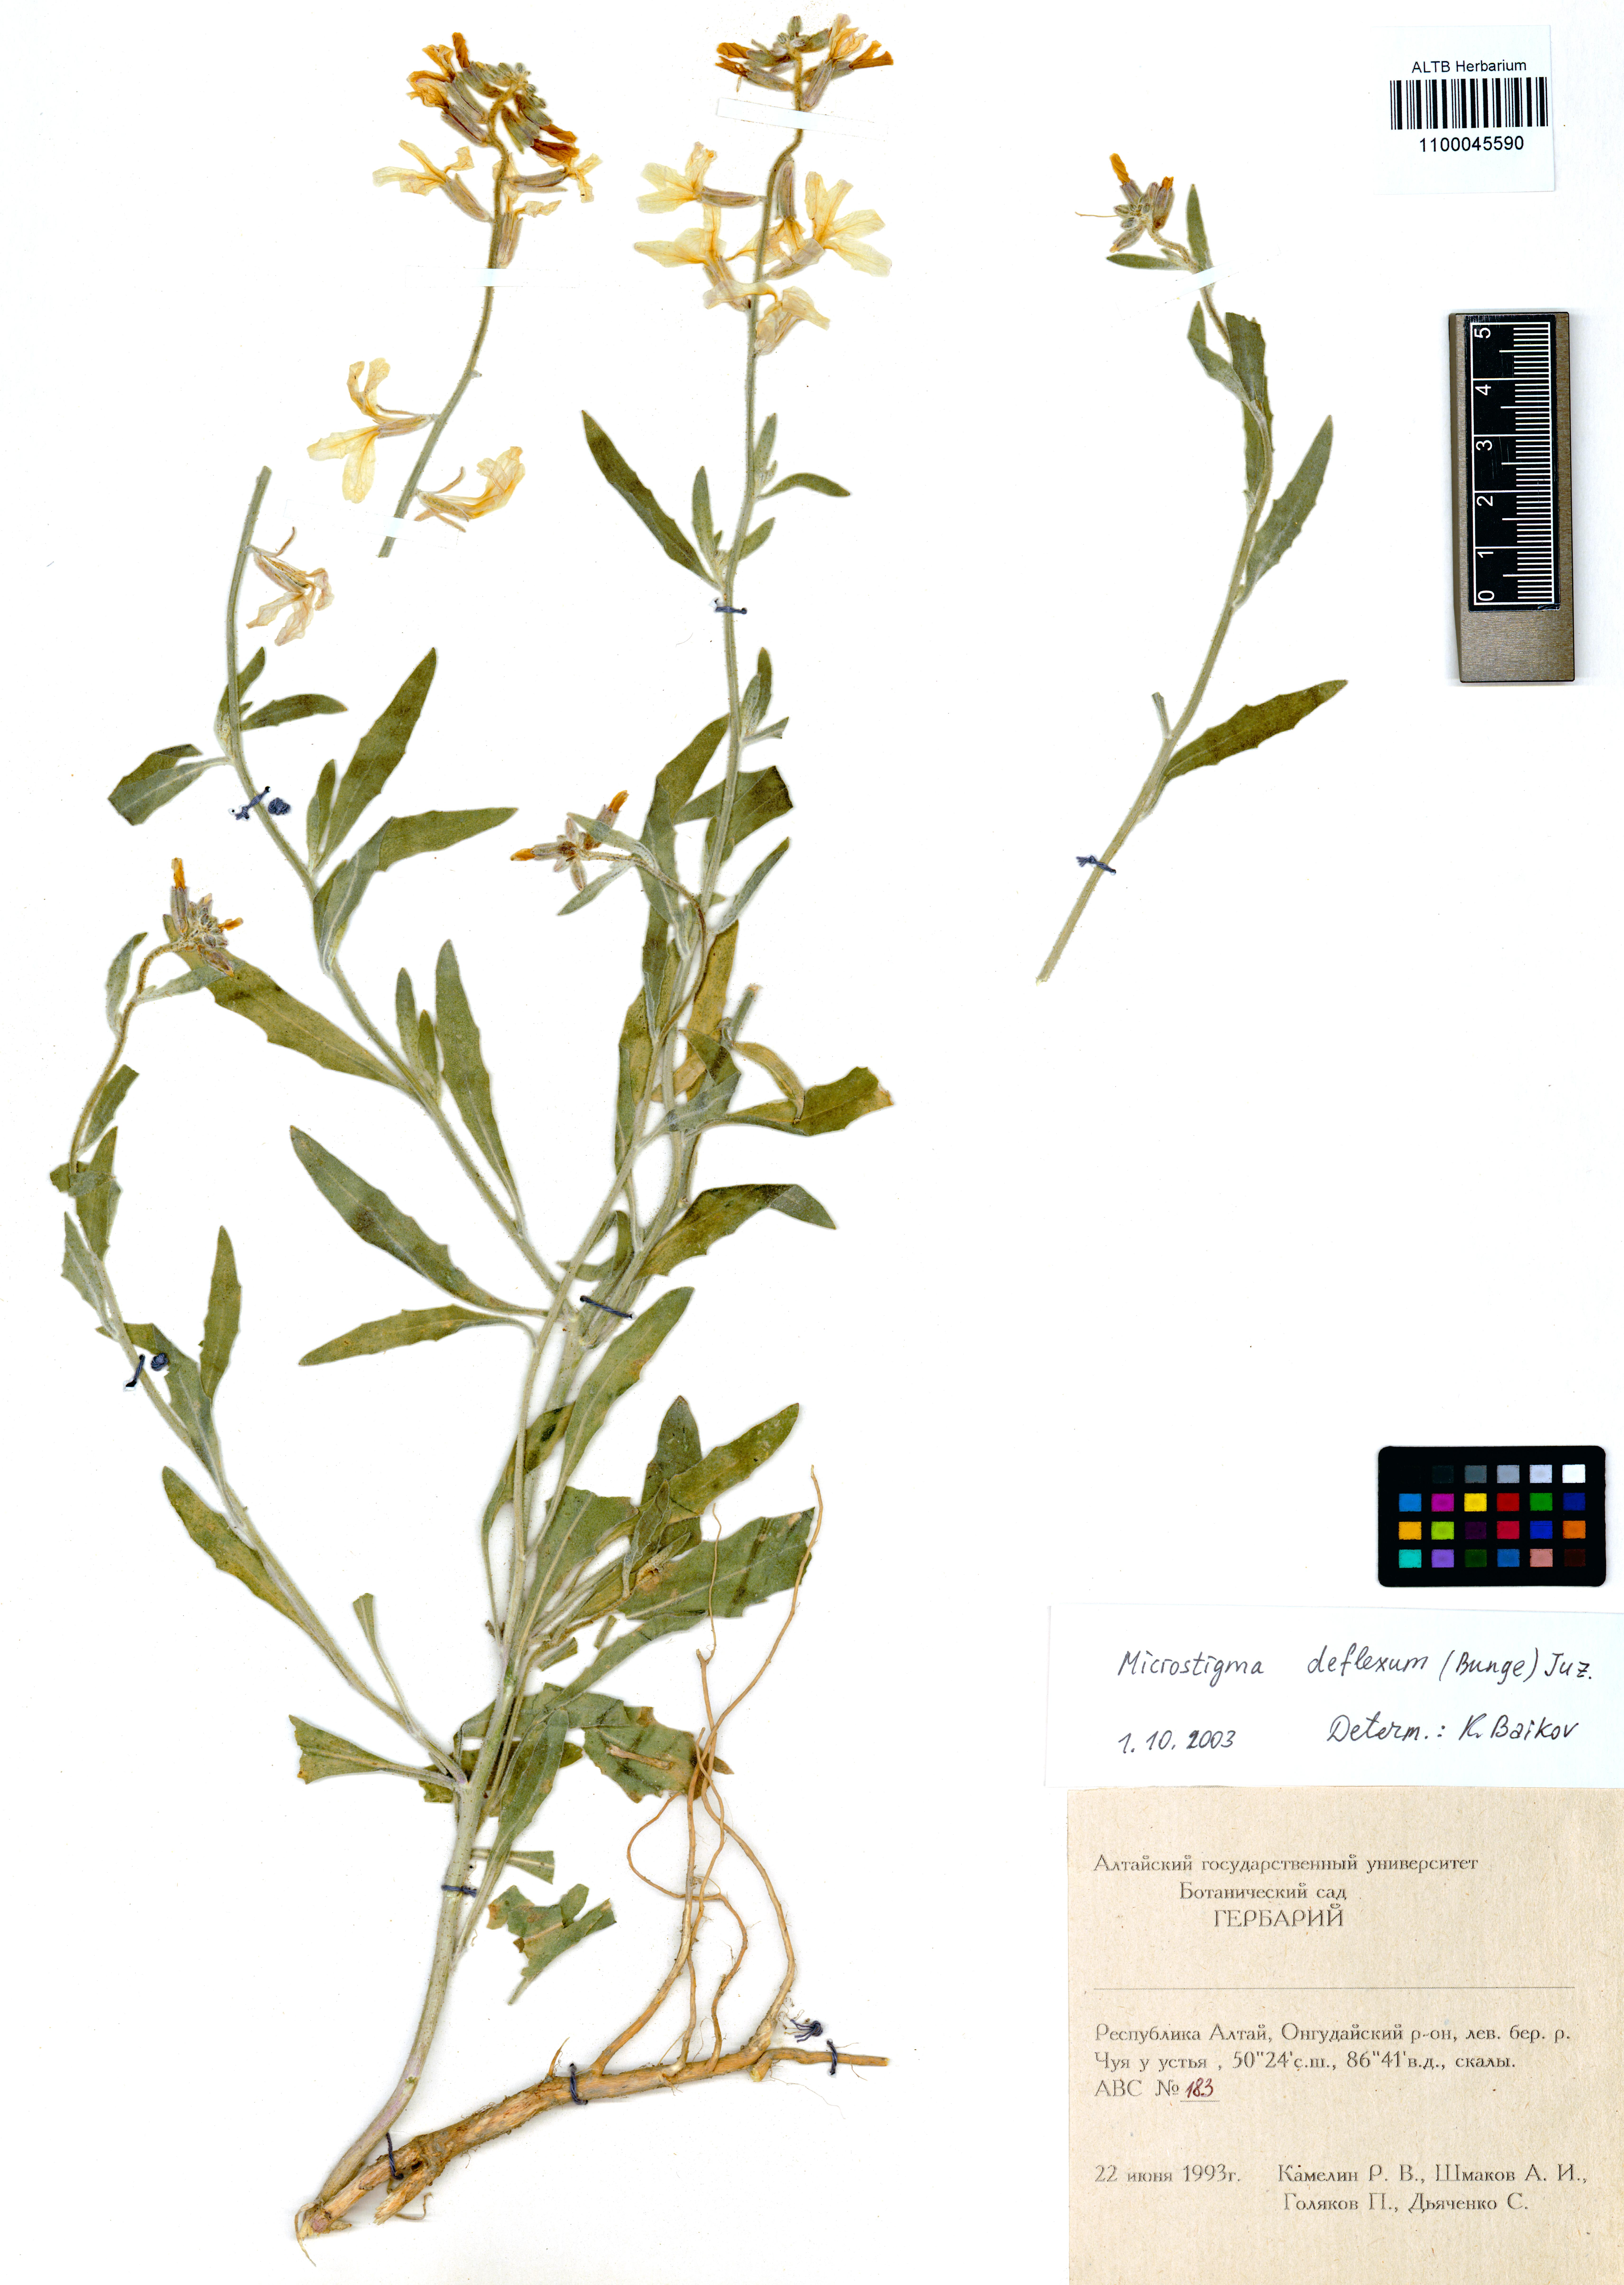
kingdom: Plantae
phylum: Tracheophyta
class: Magnoliopsida
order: Brassicales
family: Brassicaceae
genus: Microstigma
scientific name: Microstigma deflexum
